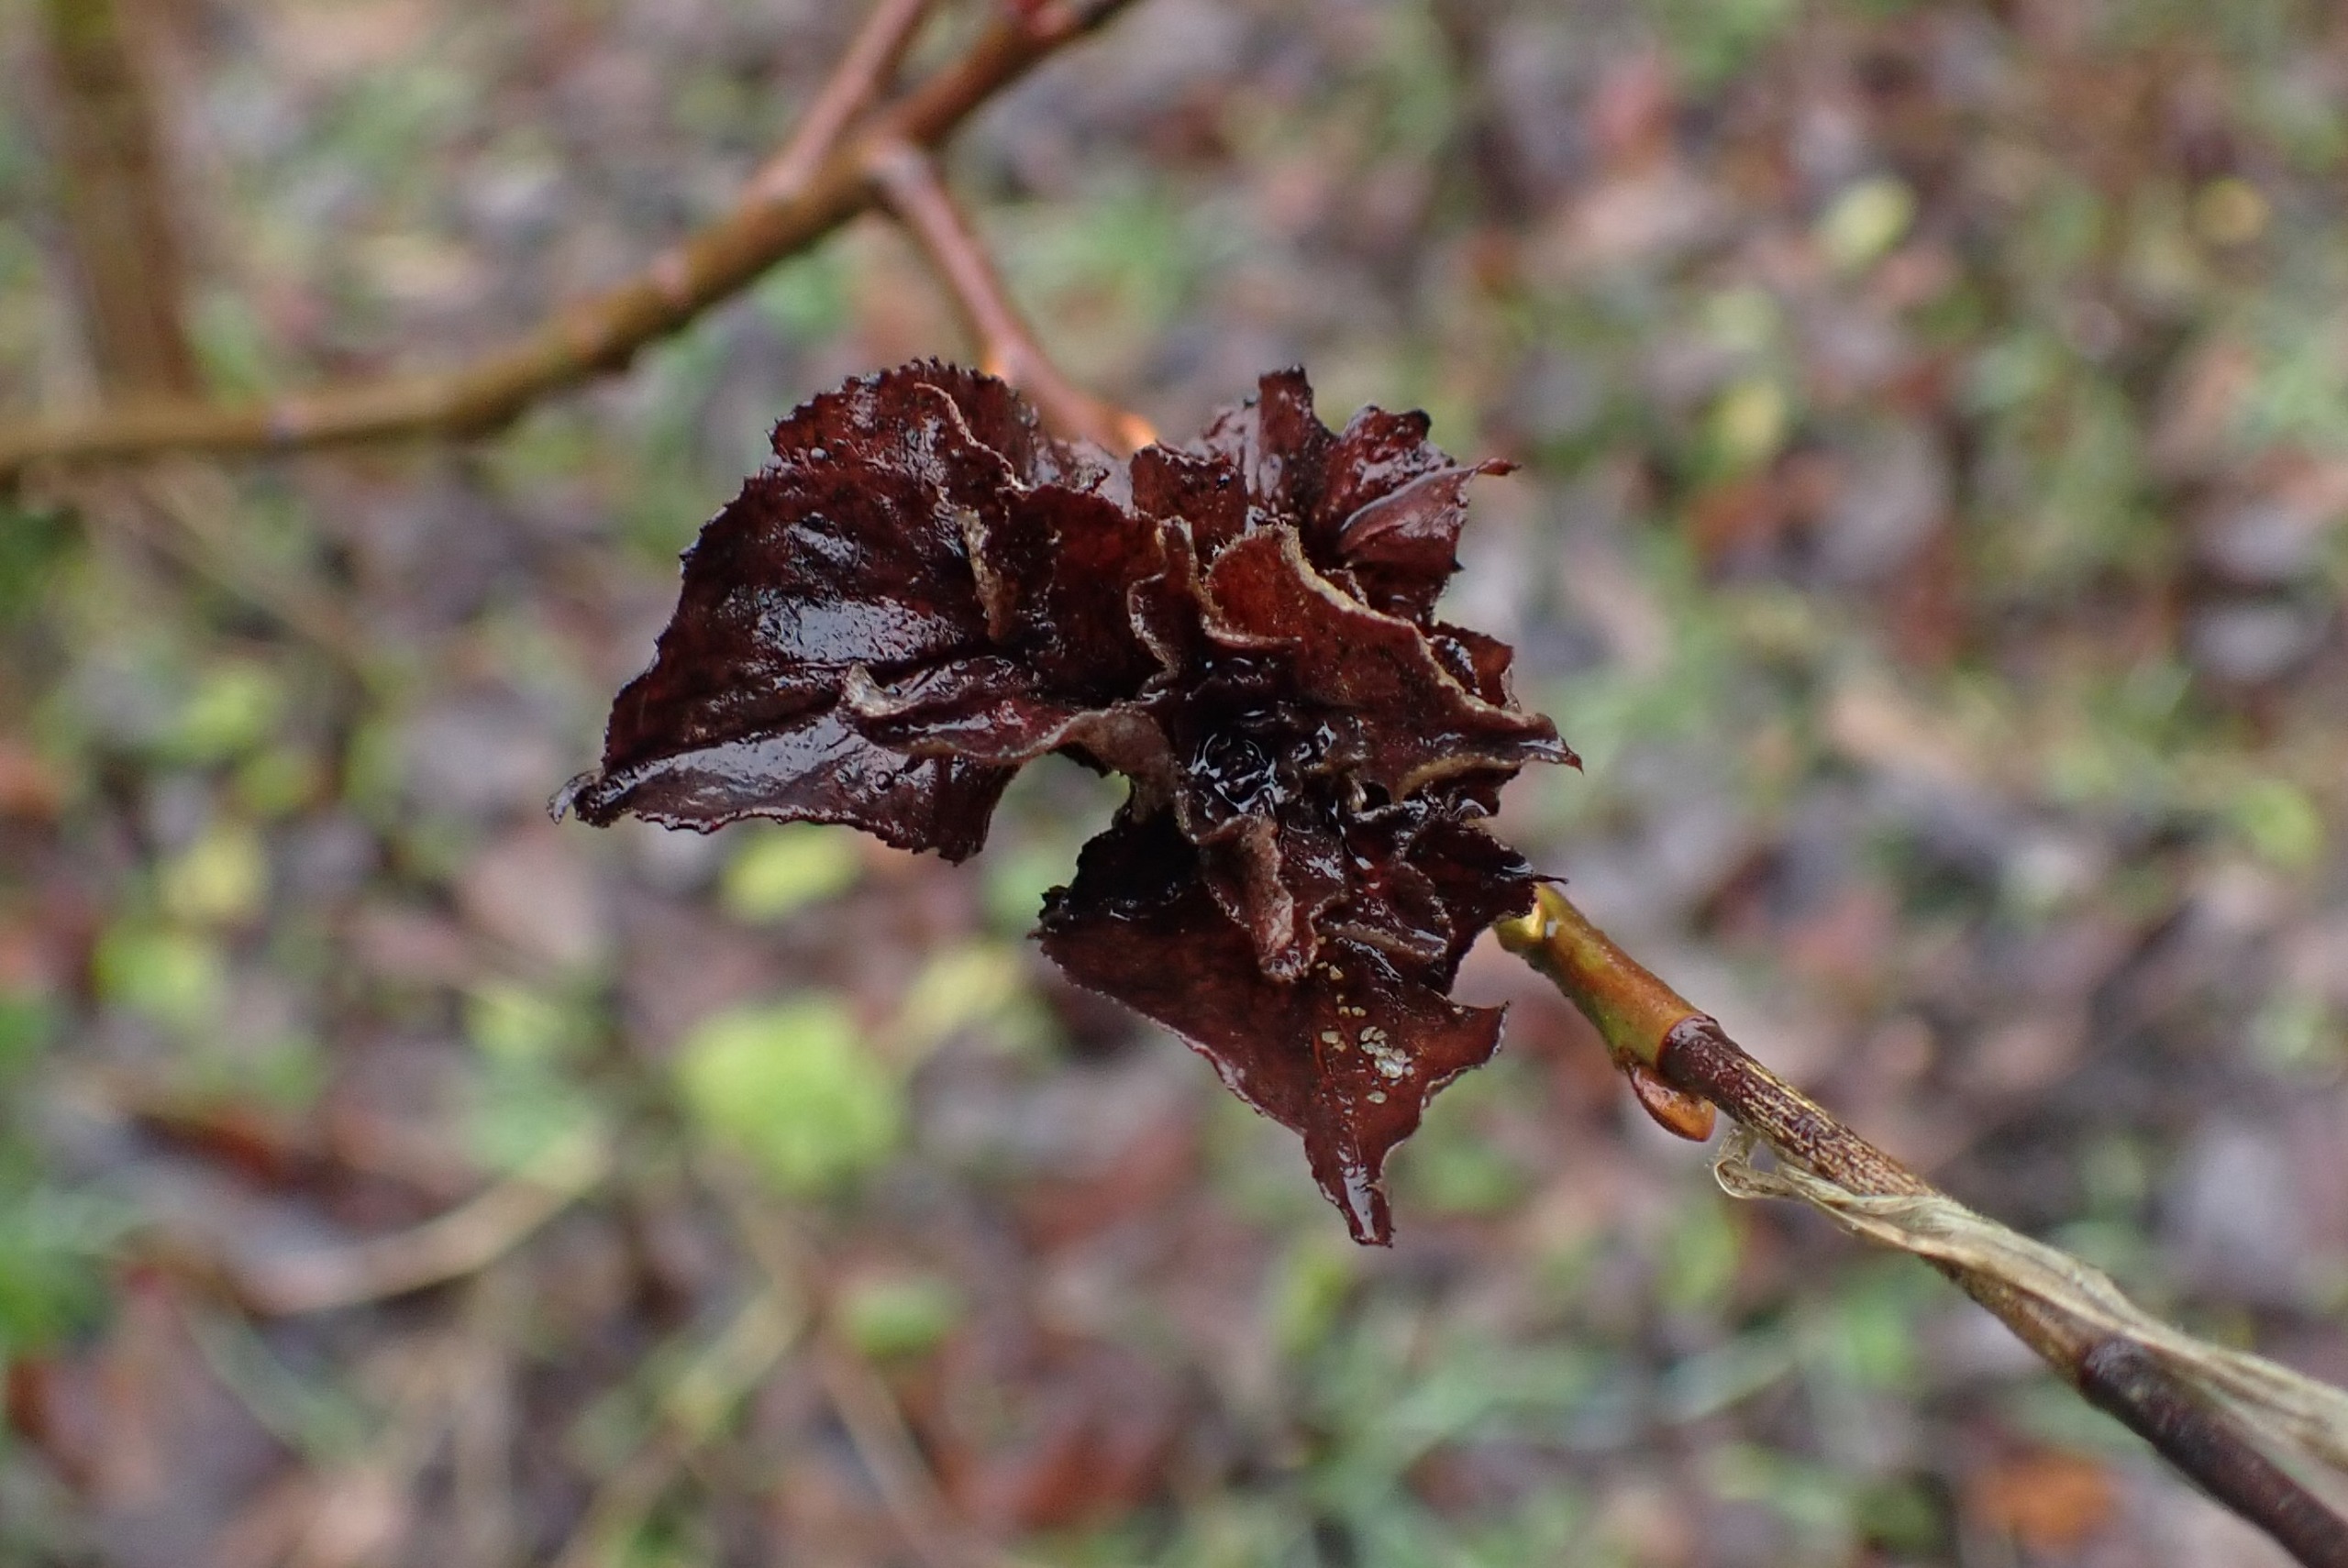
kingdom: Animalia
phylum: Arthropoda
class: Insecta
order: Diptera
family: Cecidomyiidae
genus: Rabdophaga
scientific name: Rabdophaga rosaria
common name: Pilerosetgalmyg
